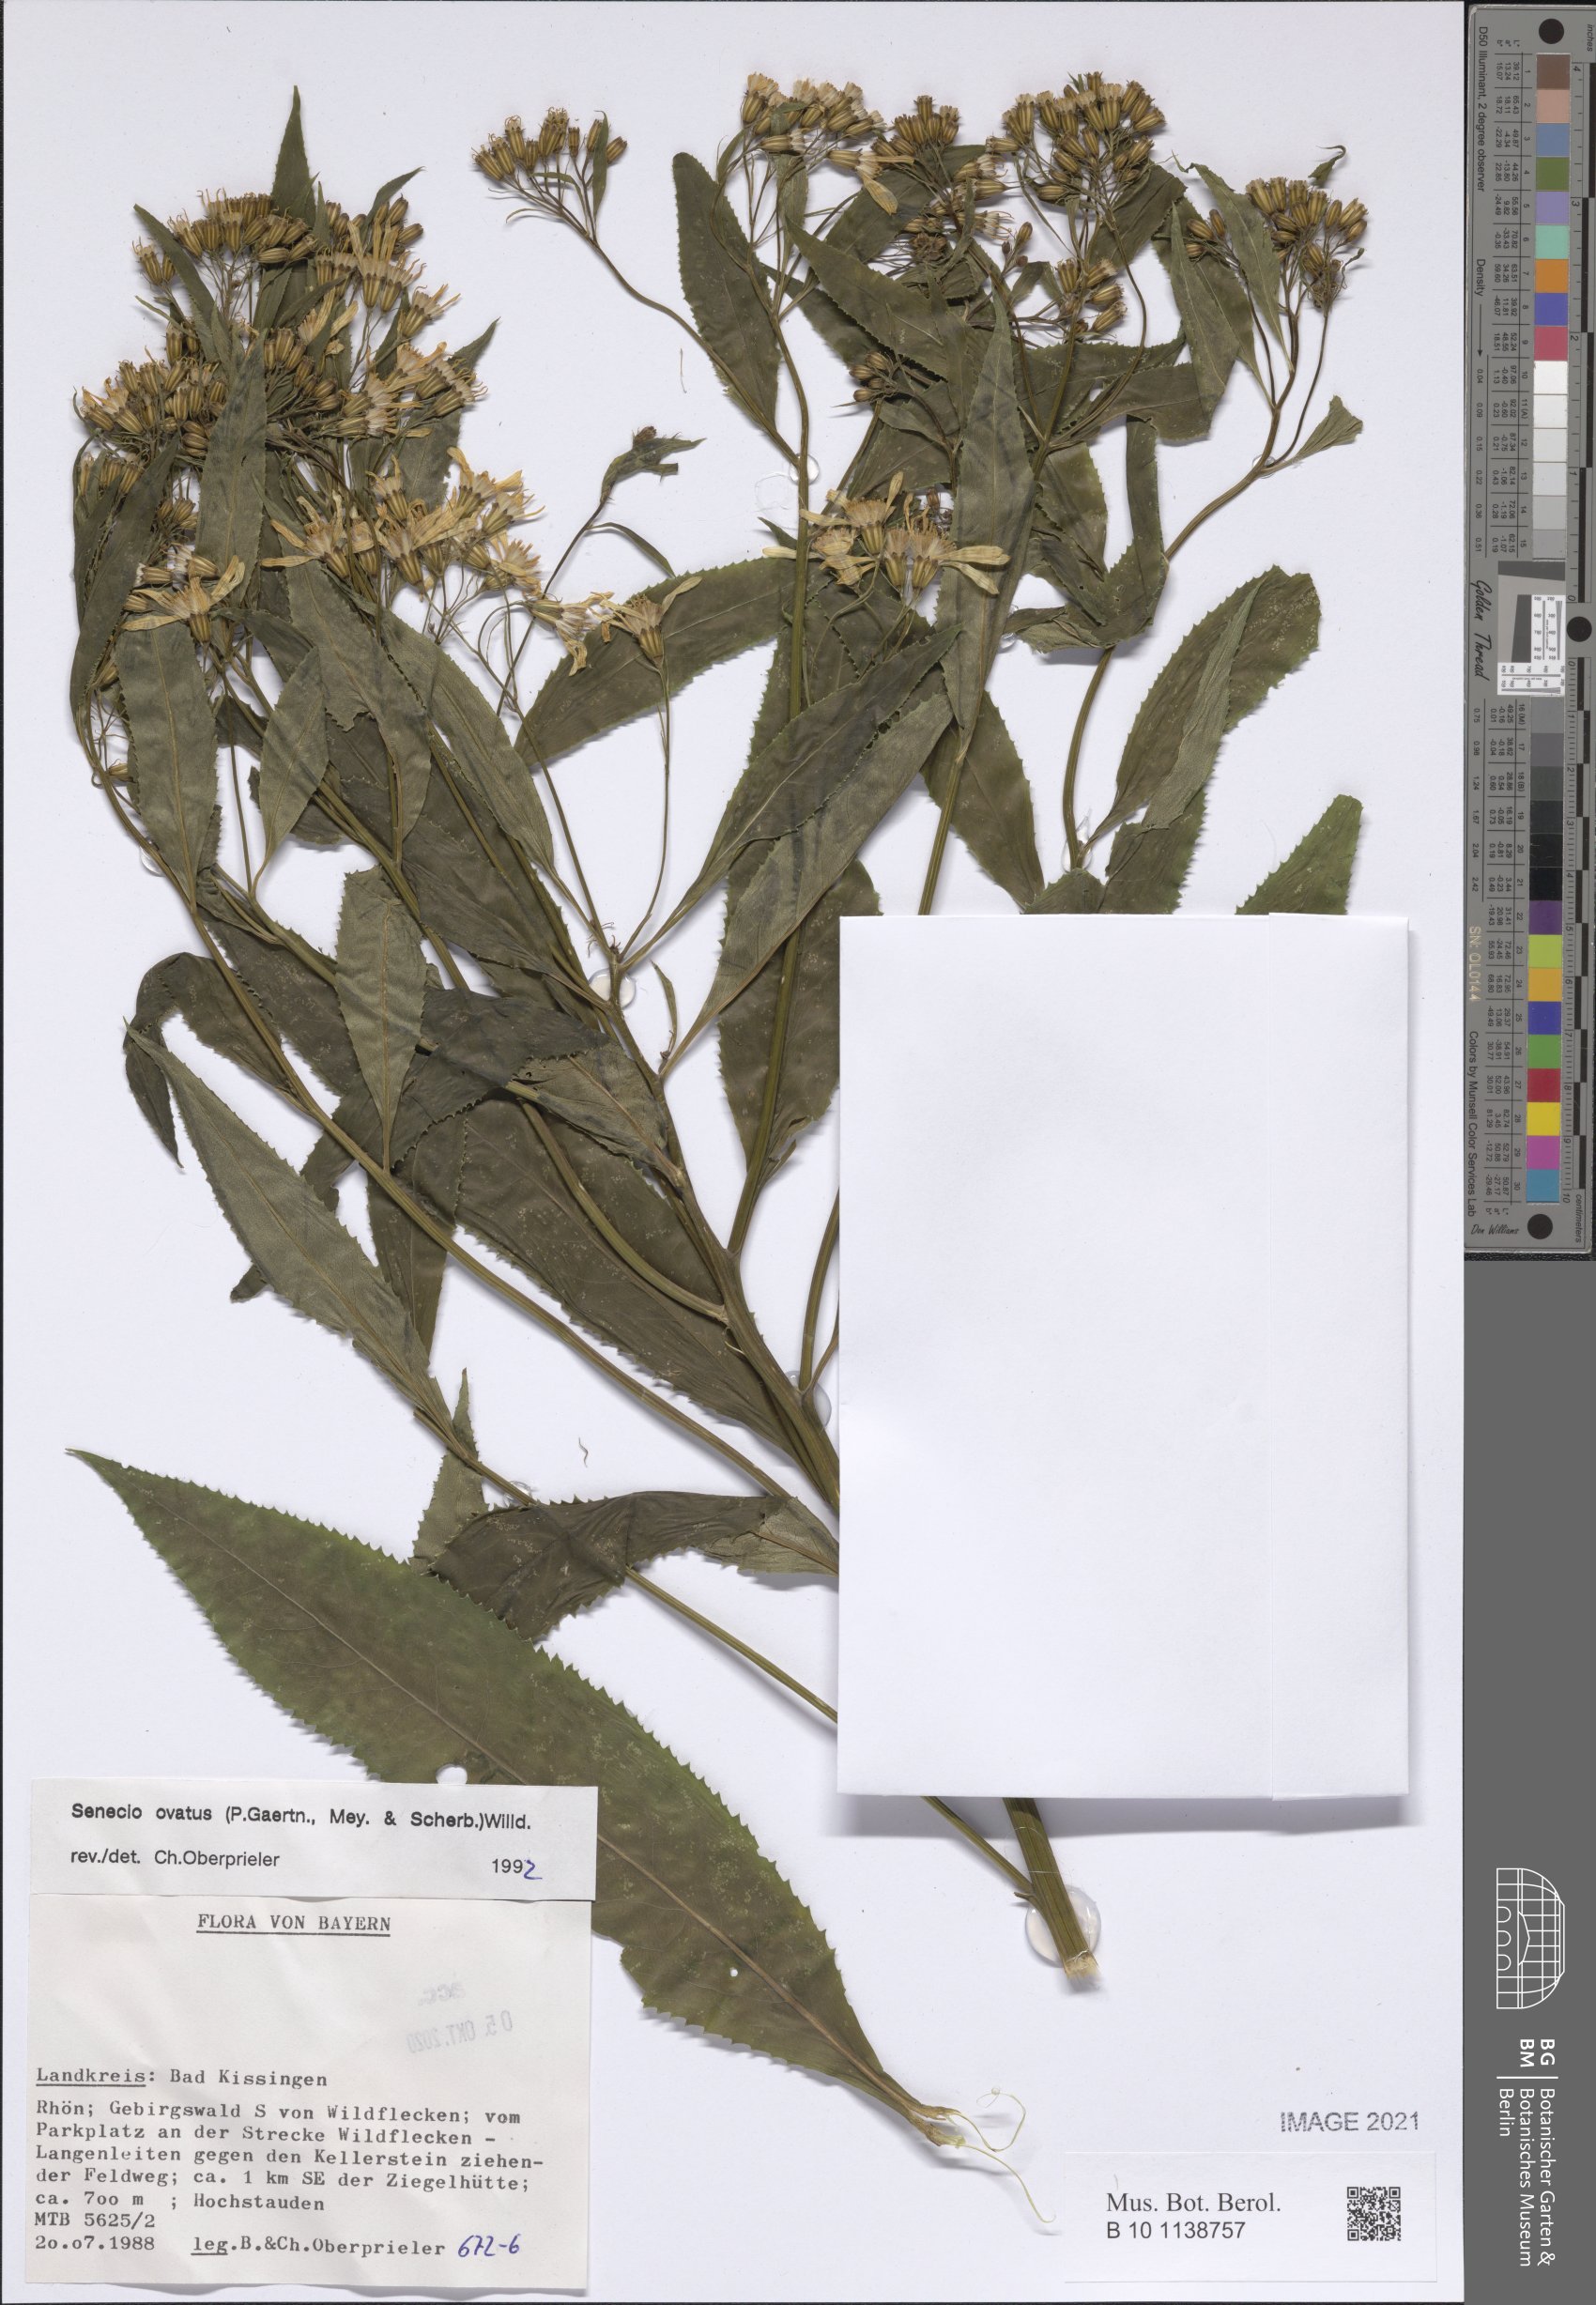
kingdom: Plantae
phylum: Tracheophyta
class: Magnoliopsida
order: Asterales
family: Asteraceae
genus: Senecio
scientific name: Senecio ovatus
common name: Wood ragwort
